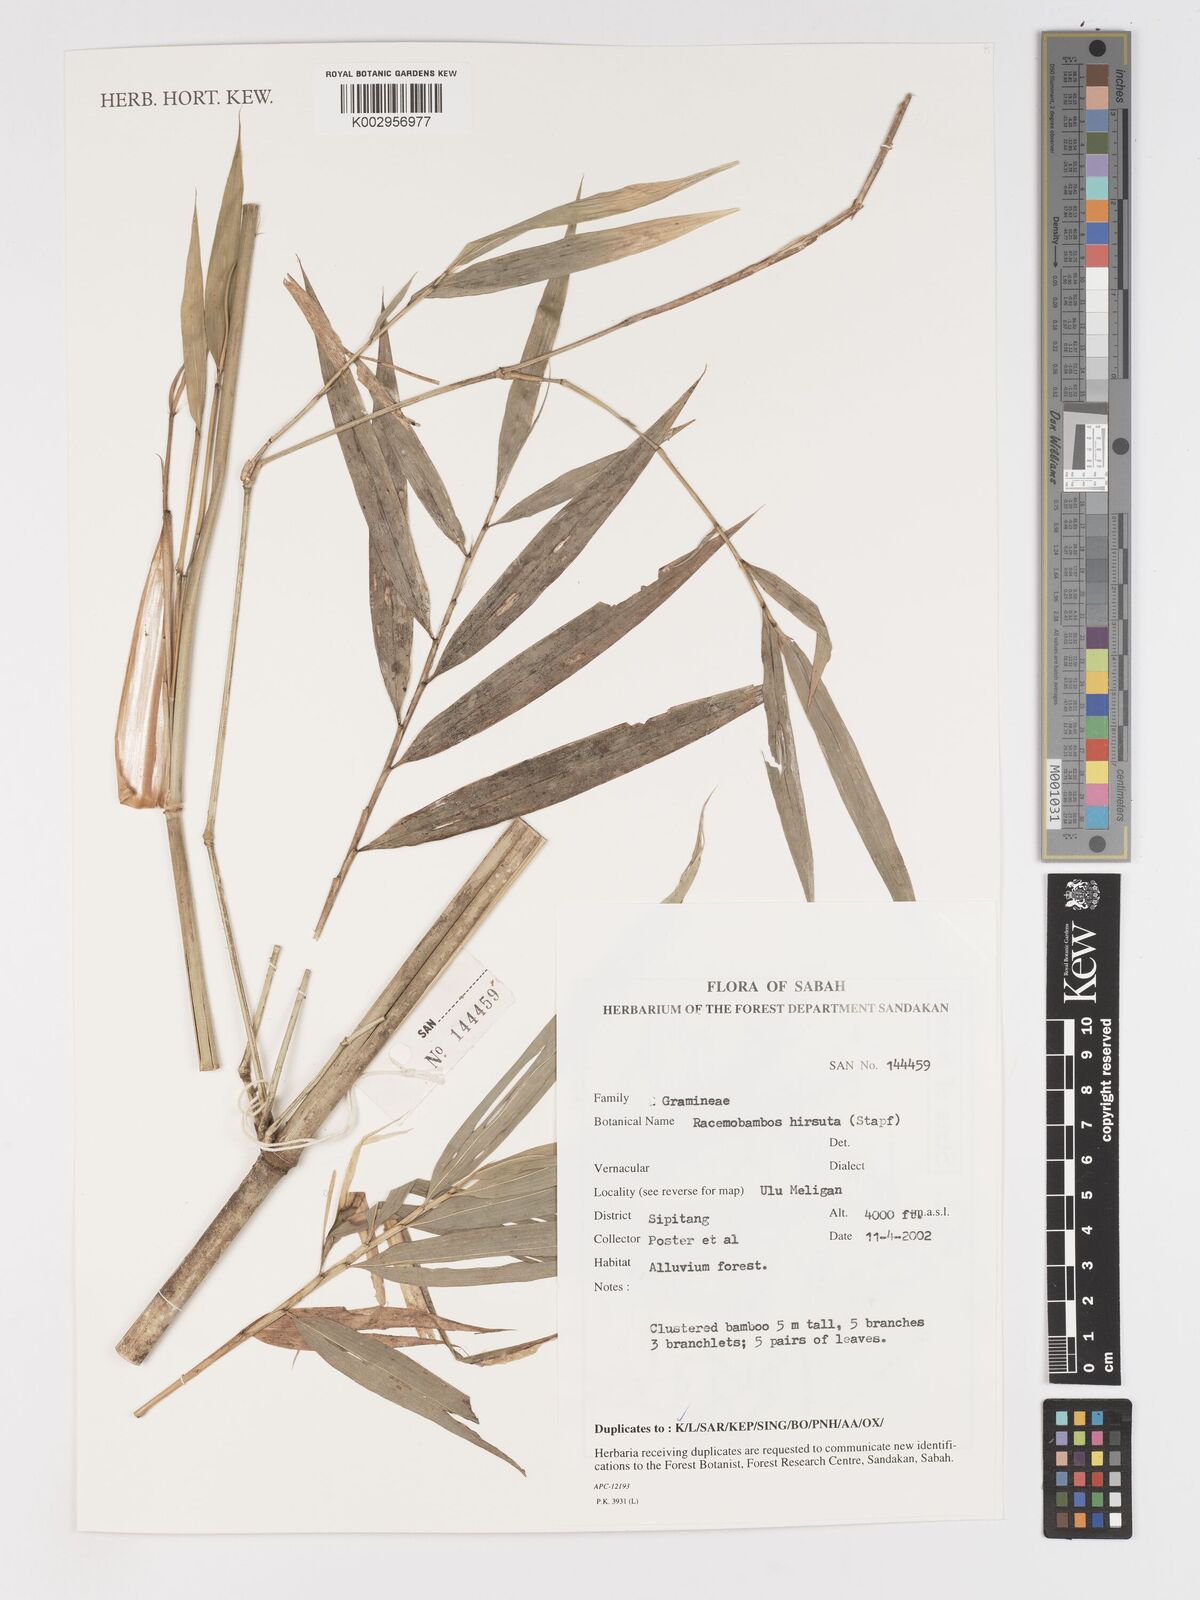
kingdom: Plantae
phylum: Tracheophyta
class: Liliopsida
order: Poales
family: Poaceae
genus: Racemobambos
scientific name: Racemobambos hirsuta
